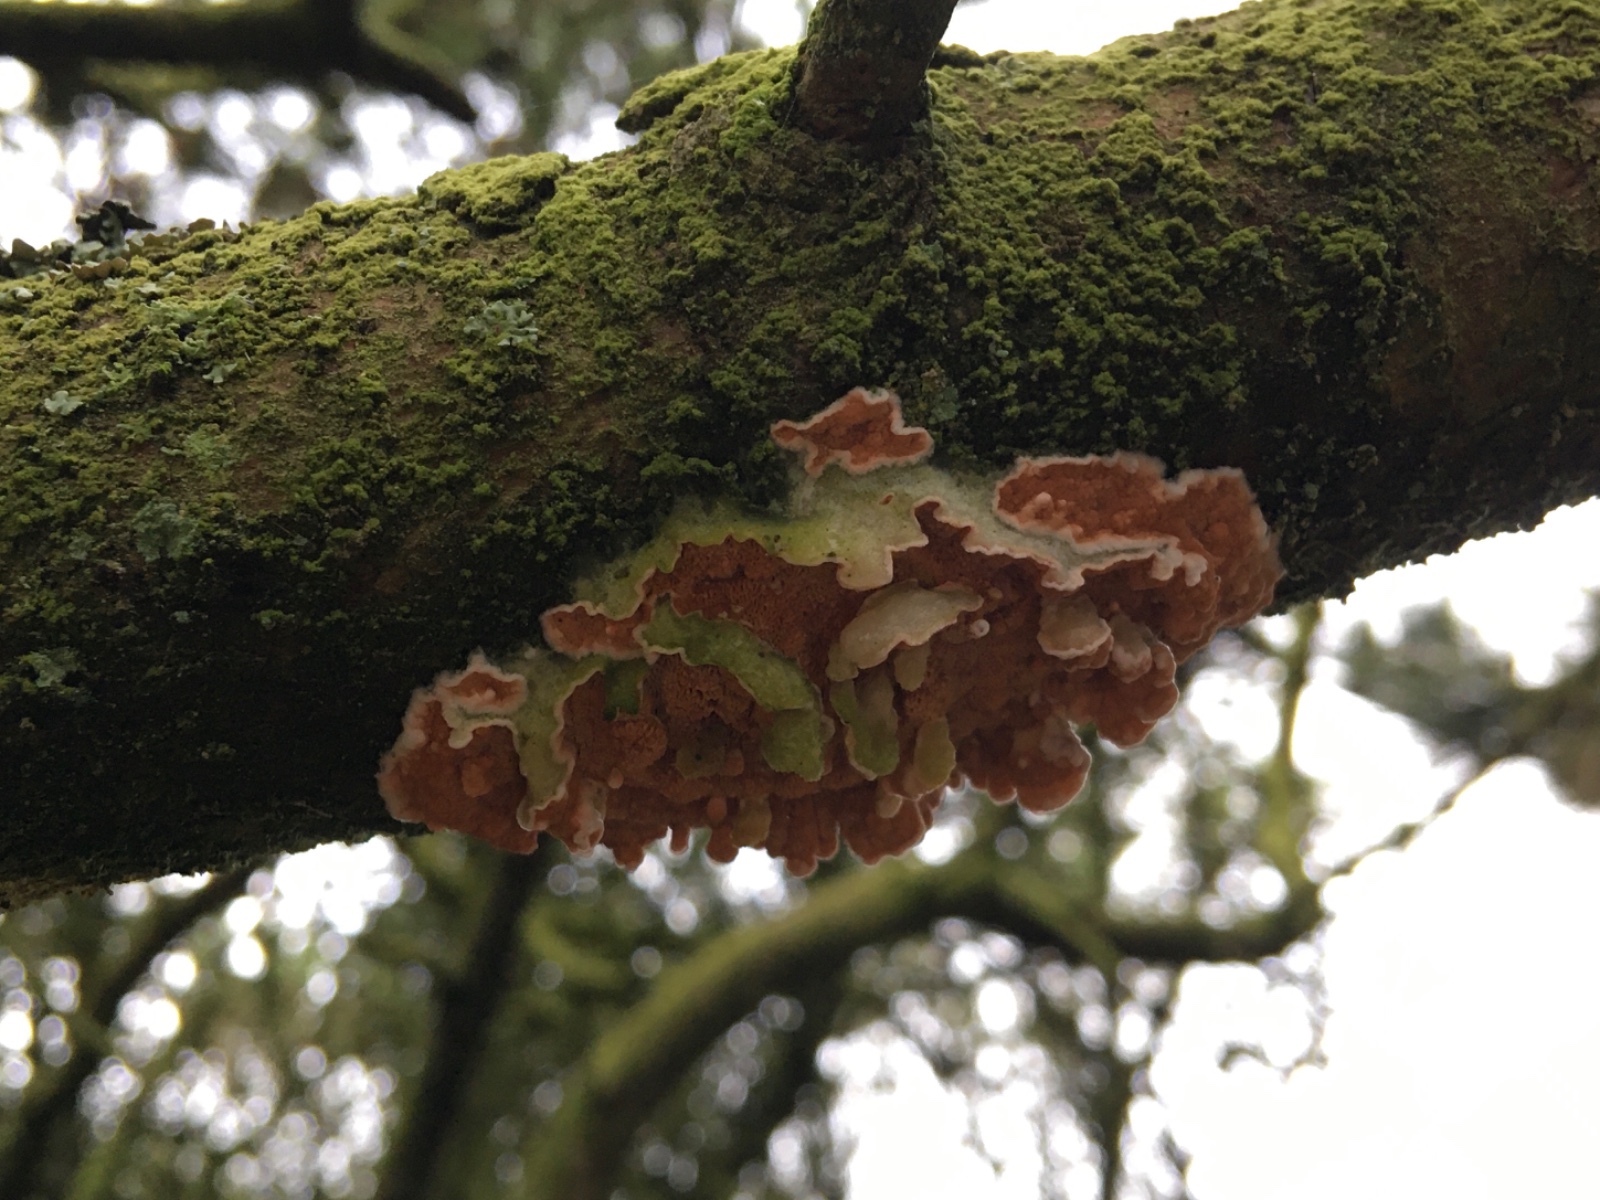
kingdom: Fungi
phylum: Basidiomycota
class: Agaricomycetes
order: Polyporales
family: Irpicaceae
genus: Meruliopsis
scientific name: Meruliopsis taxicola
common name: purpurbrun foldporesvamp
